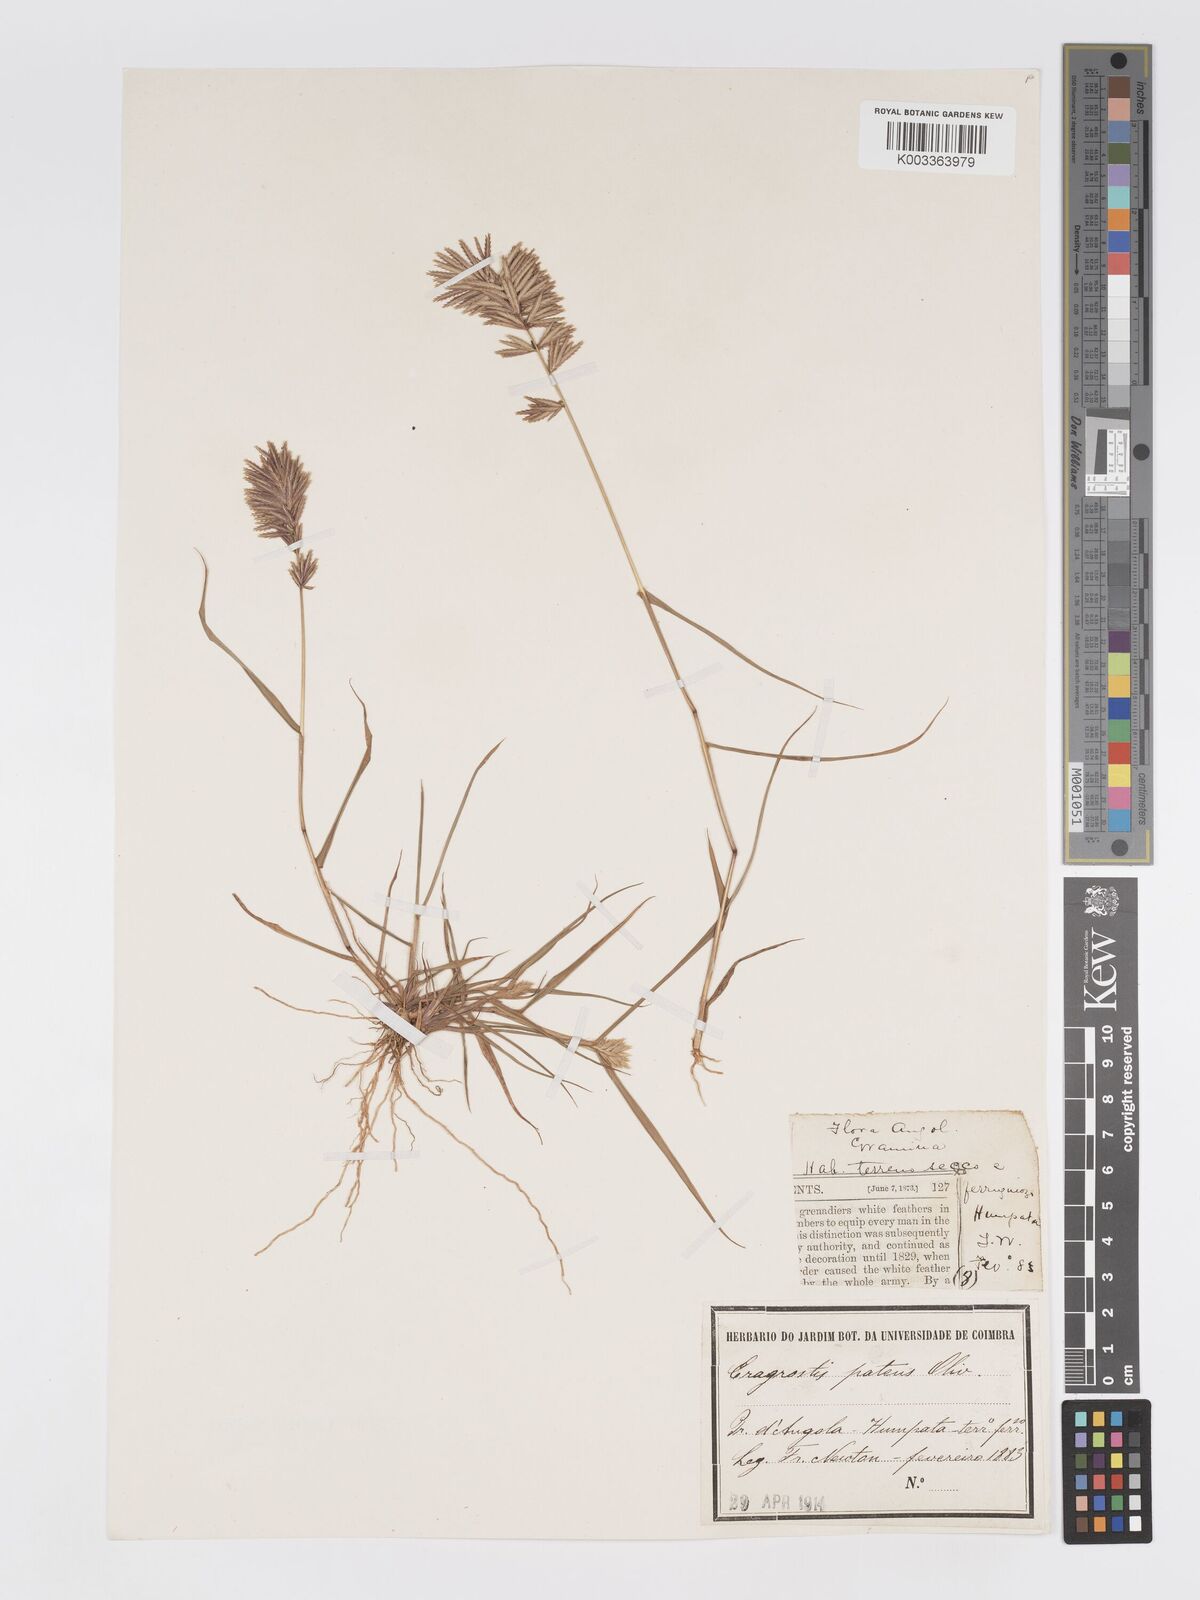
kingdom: Plantae
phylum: Tracheophyta
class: Liliopsida
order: Poales
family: Poaceae
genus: Eragrostis
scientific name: Eragrostis patens
